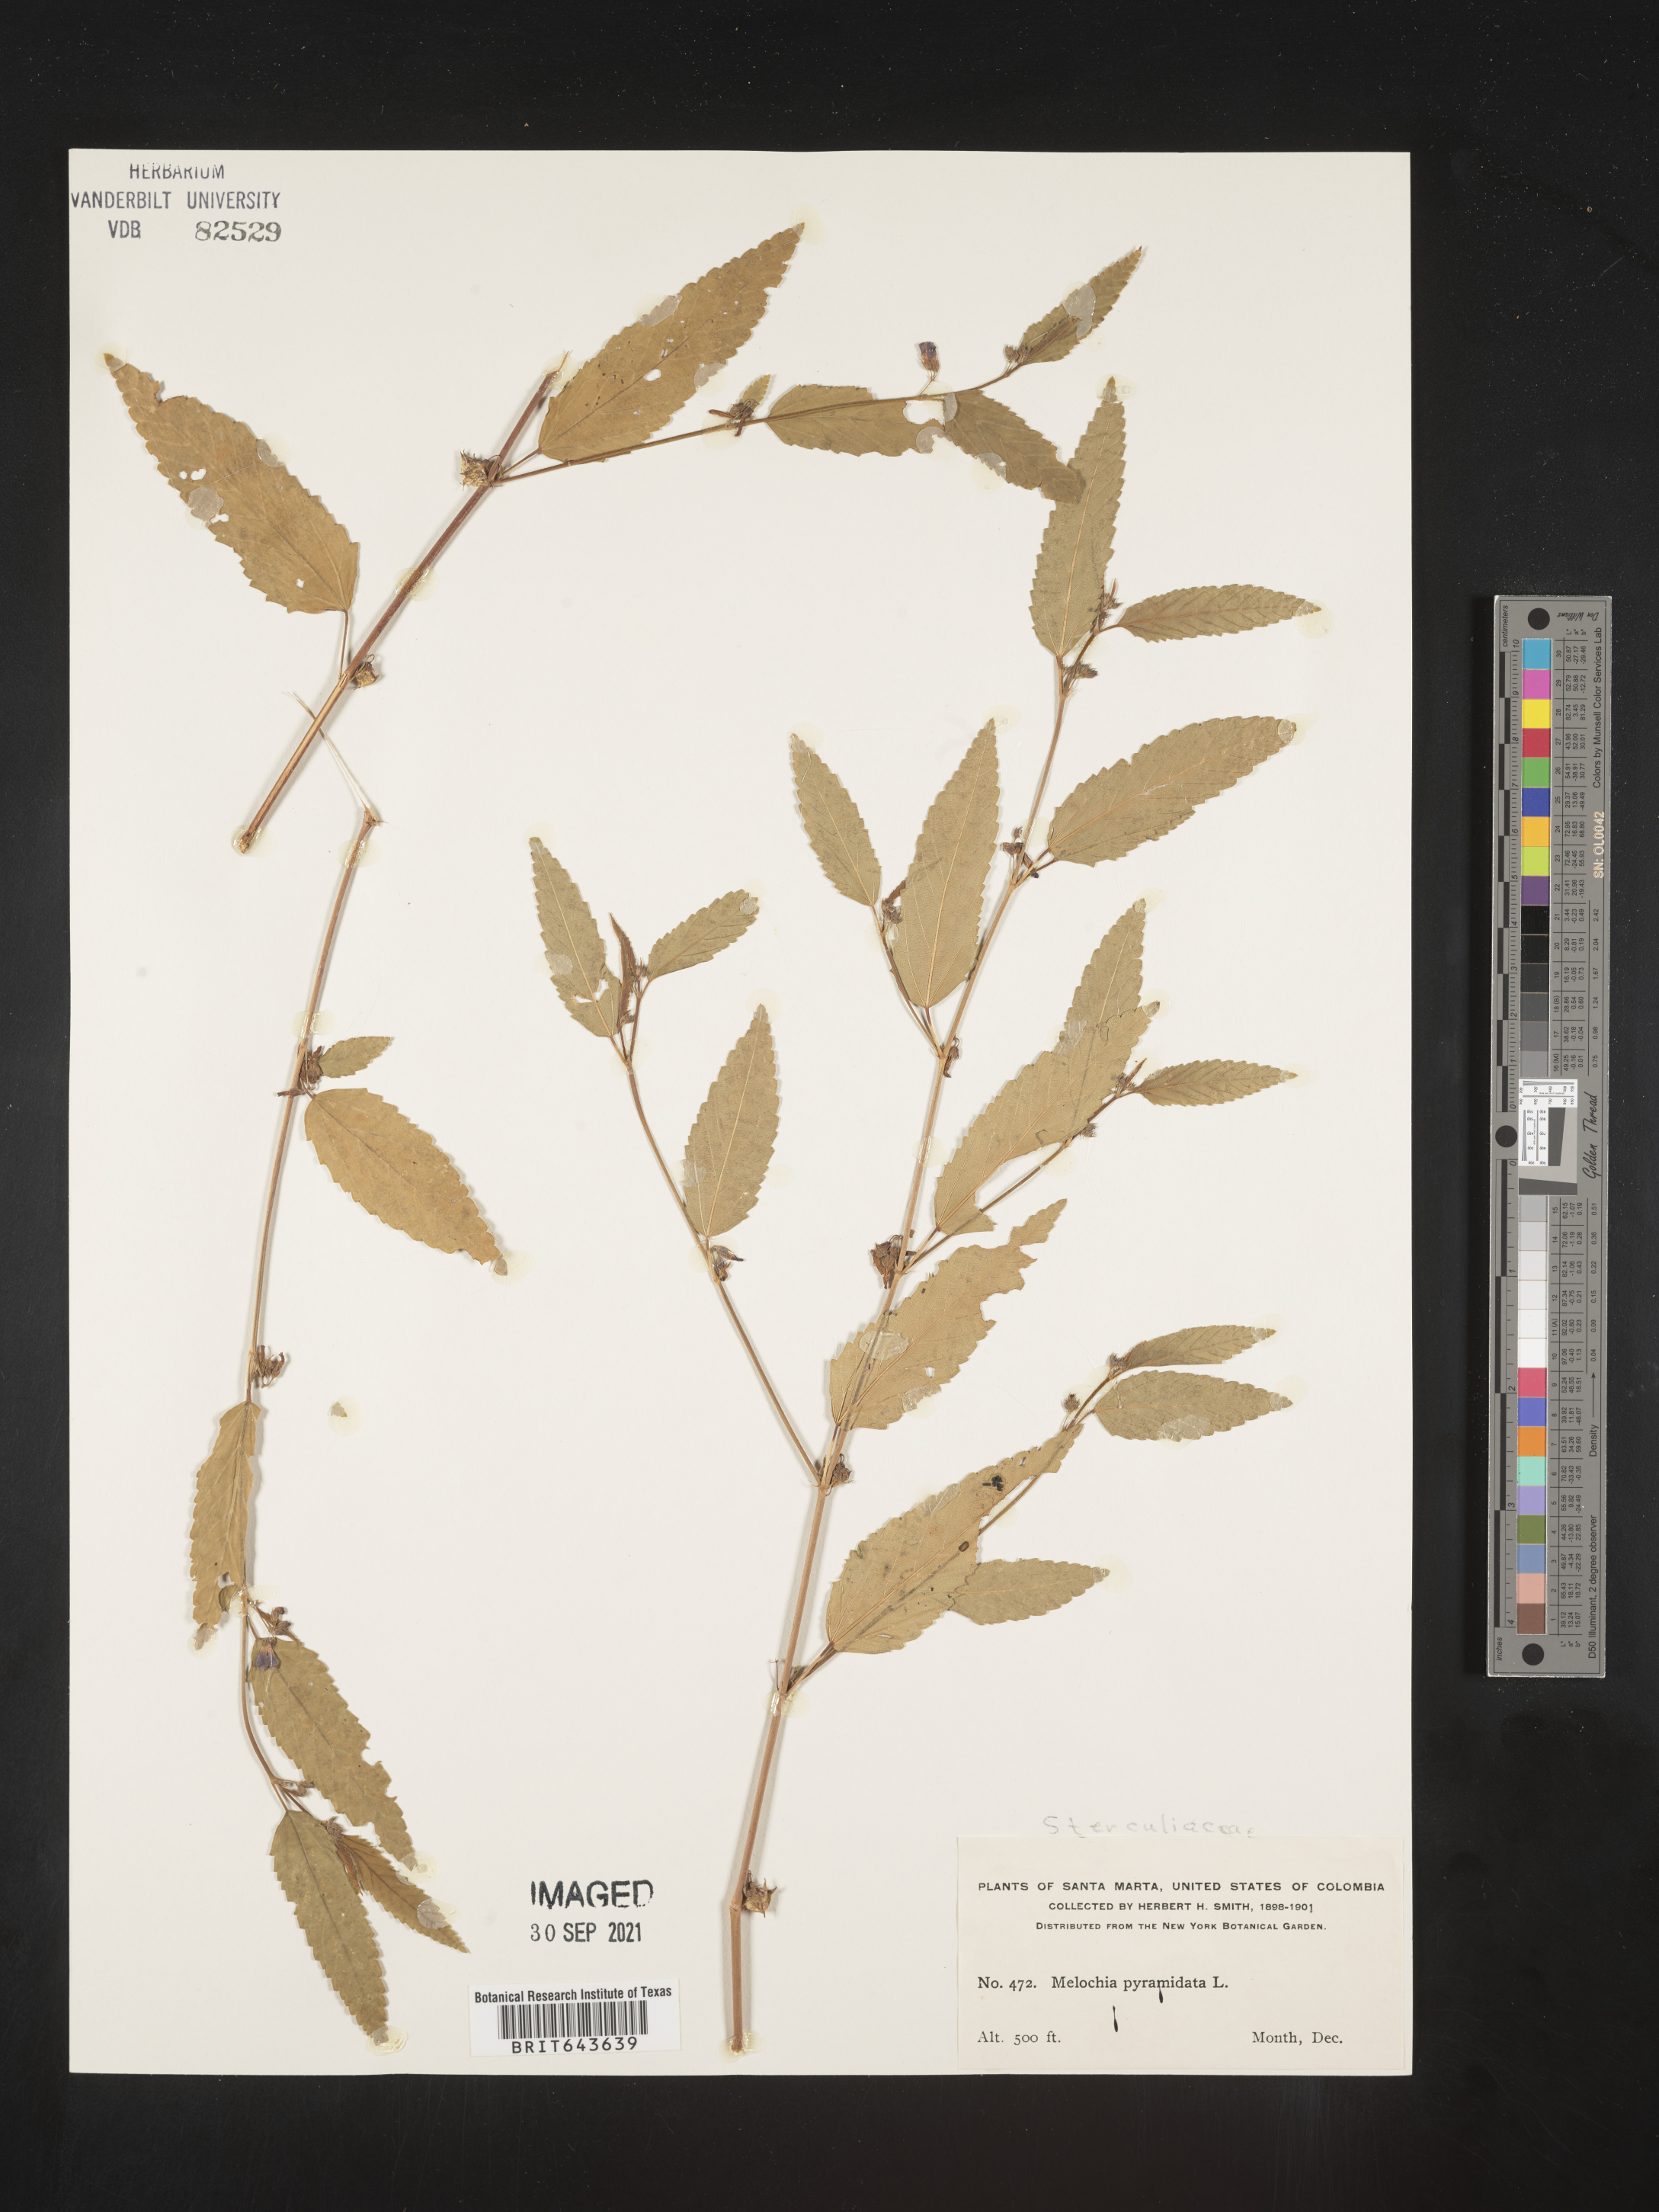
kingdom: Plantae
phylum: Tracheophyta
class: Magnoliopsida
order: Malvales
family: Malvaceae
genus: Melochia
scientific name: Melochia
